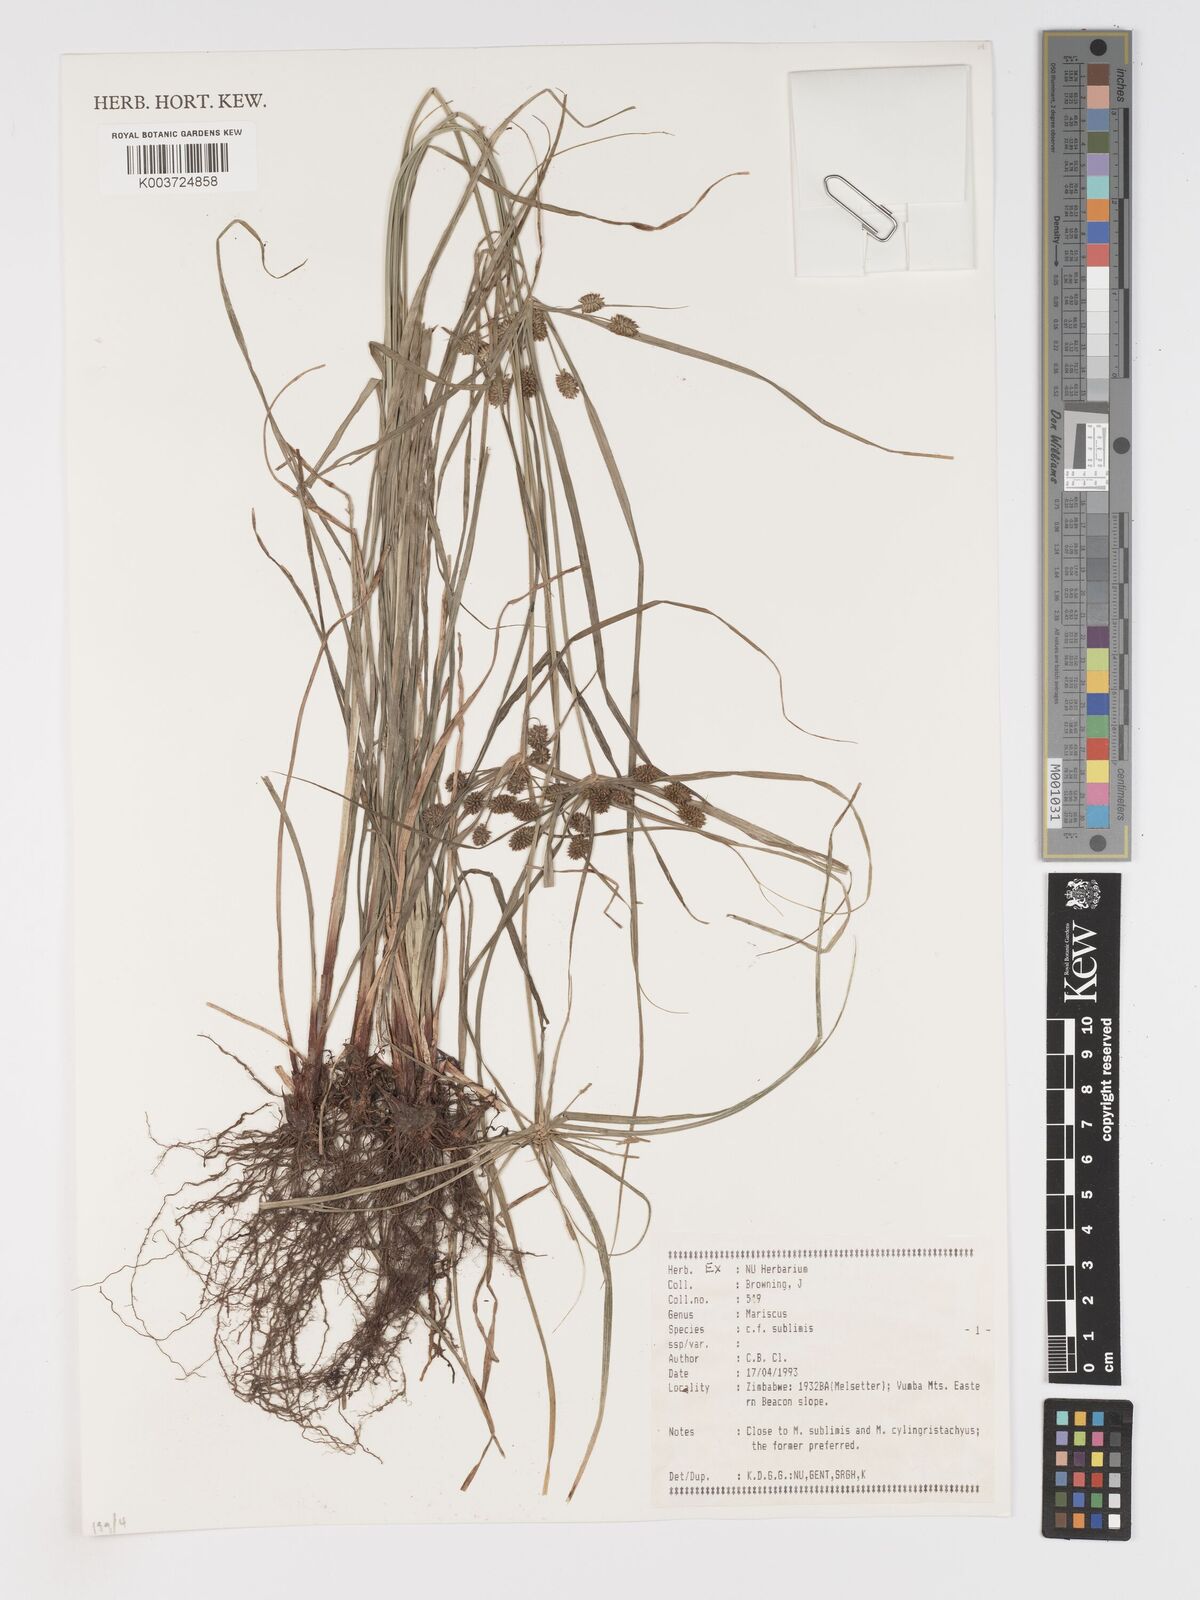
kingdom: Plantae
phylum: Tracheophyta
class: Liliopsida
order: Poales
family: Cyperaceae
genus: Cyperus
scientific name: Cyperus sublimis
